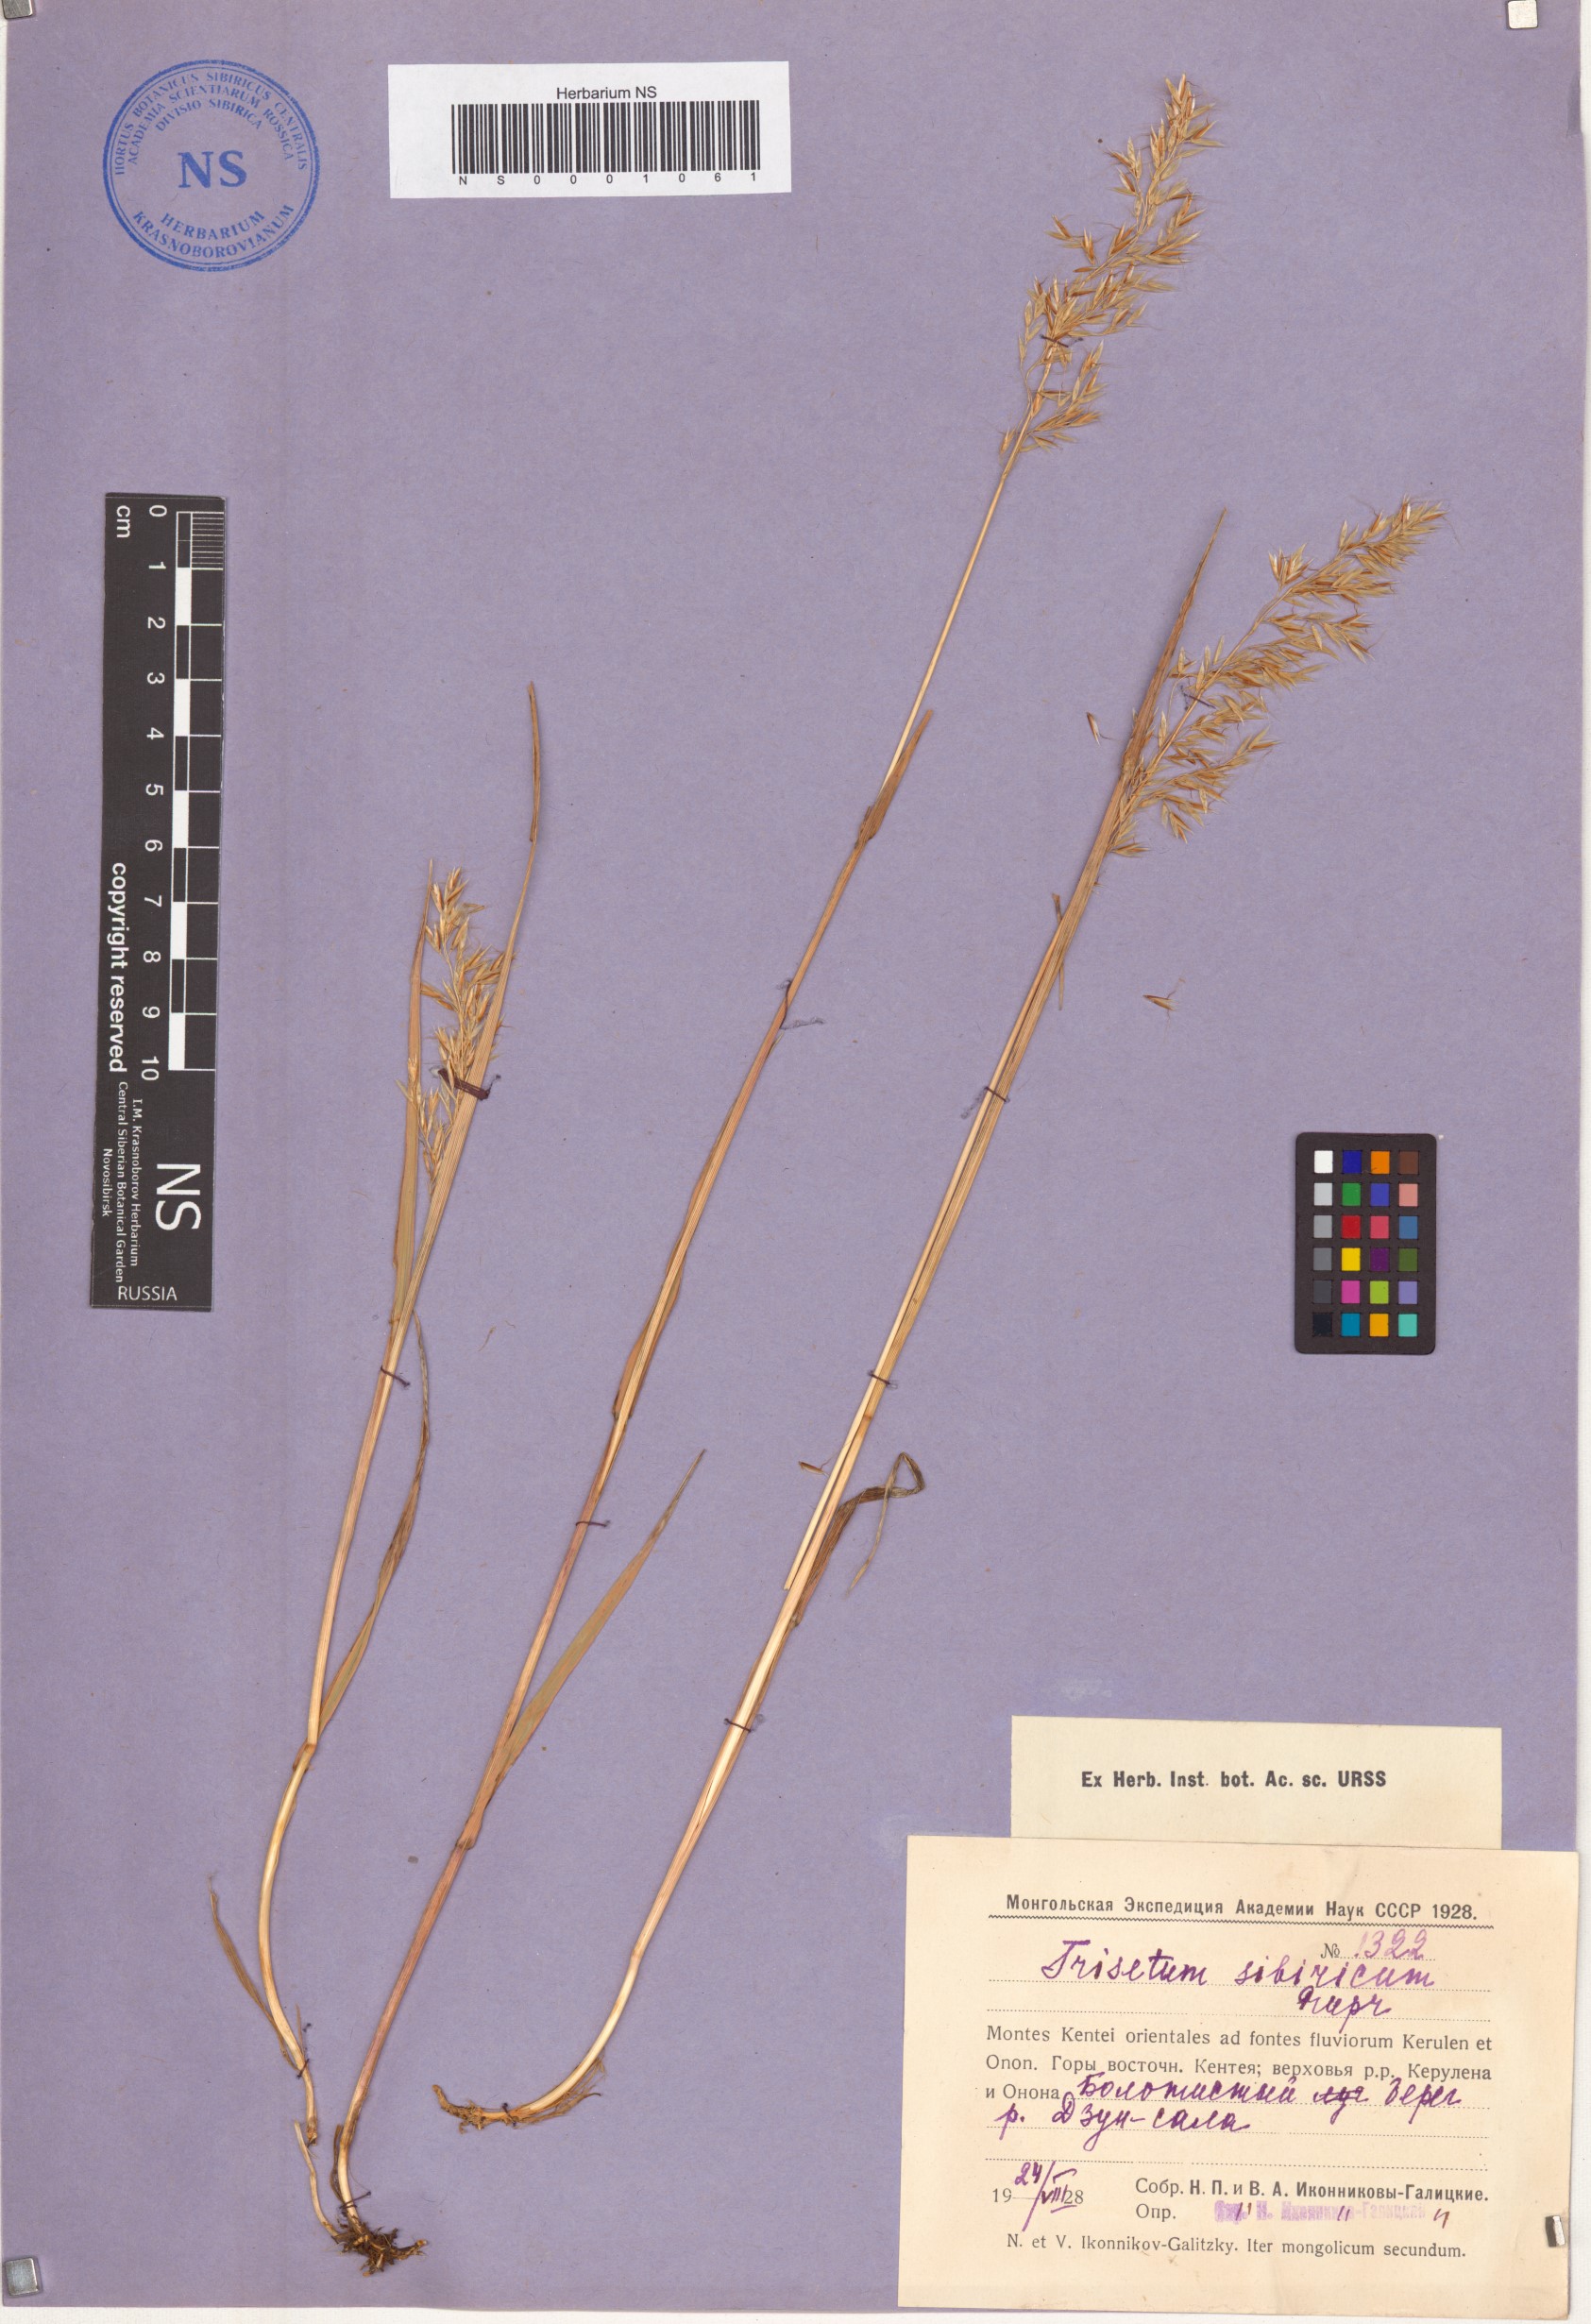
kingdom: Plantae
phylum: Tracheophyta
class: Liliopsida
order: Poales
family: Poaceae
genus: Sibirotrisetum
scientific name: Sibirotrisetum sibiricum
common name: Siberian false oat
